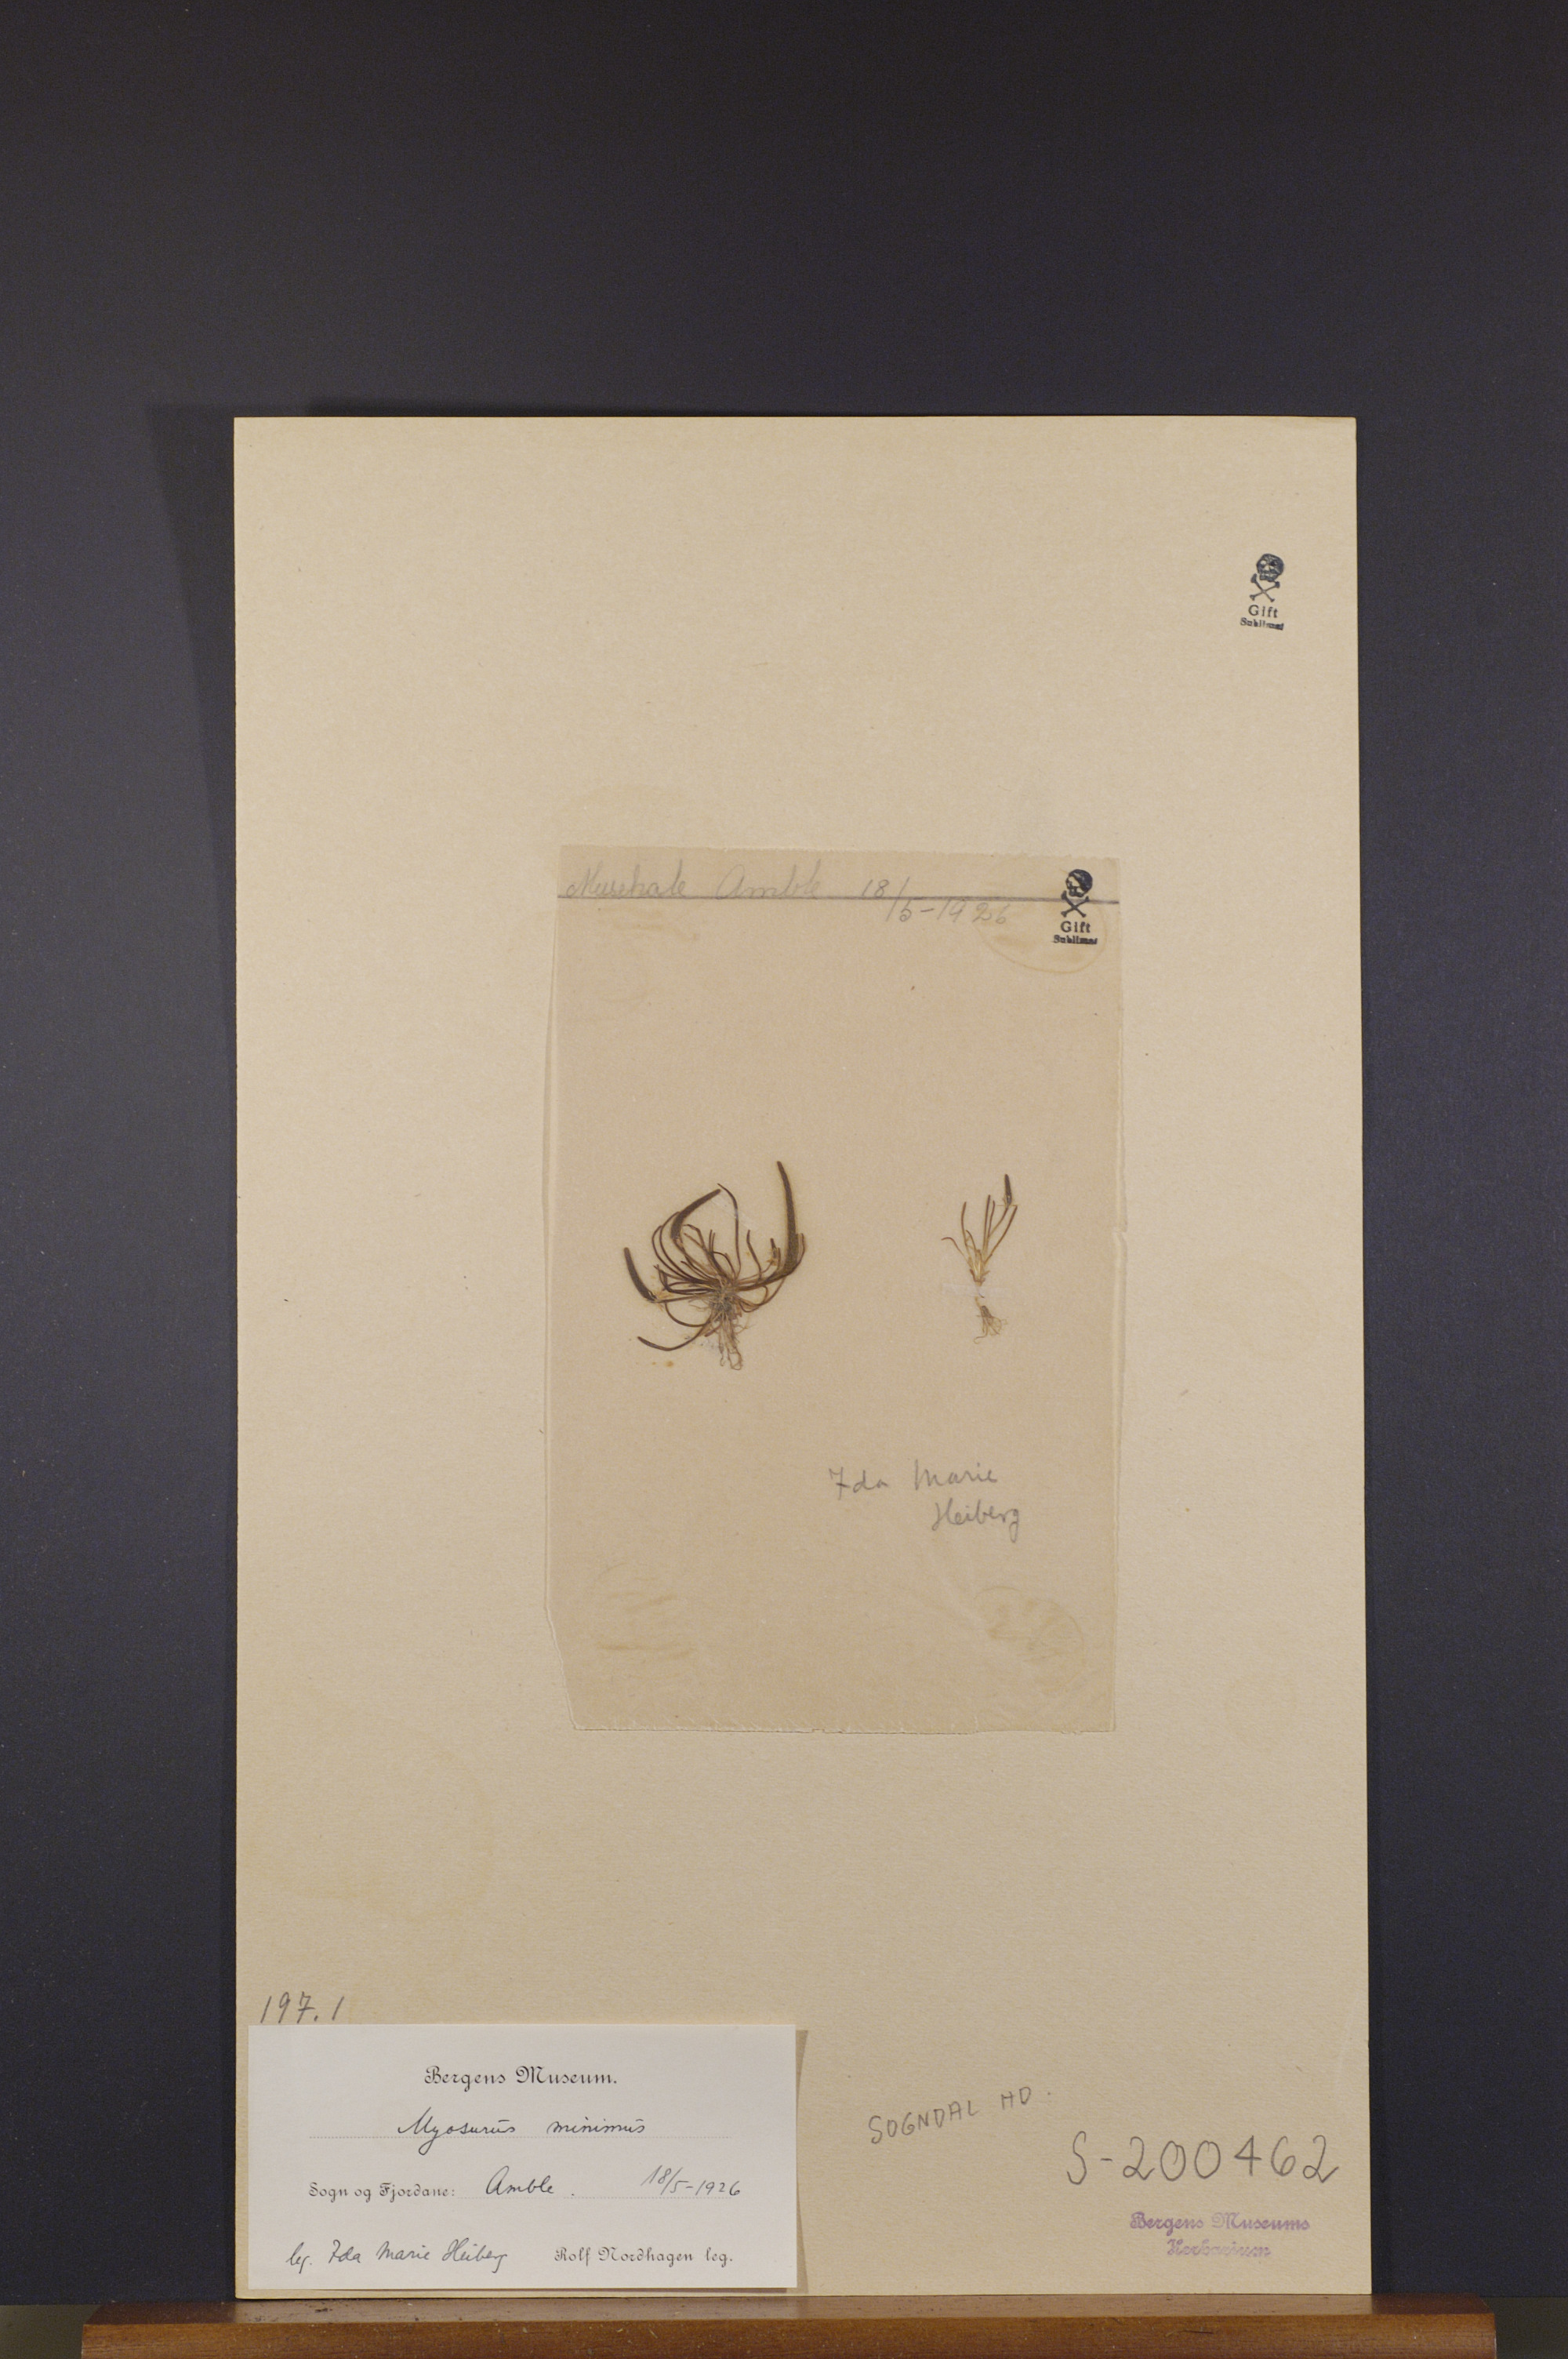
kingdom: Plantae
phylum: Tracheophyta
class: Magnoliopsida
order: Ranunculales
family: Ranunculaceae
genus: Myosurus
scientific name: Myosurus minimus
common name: Mousetail
